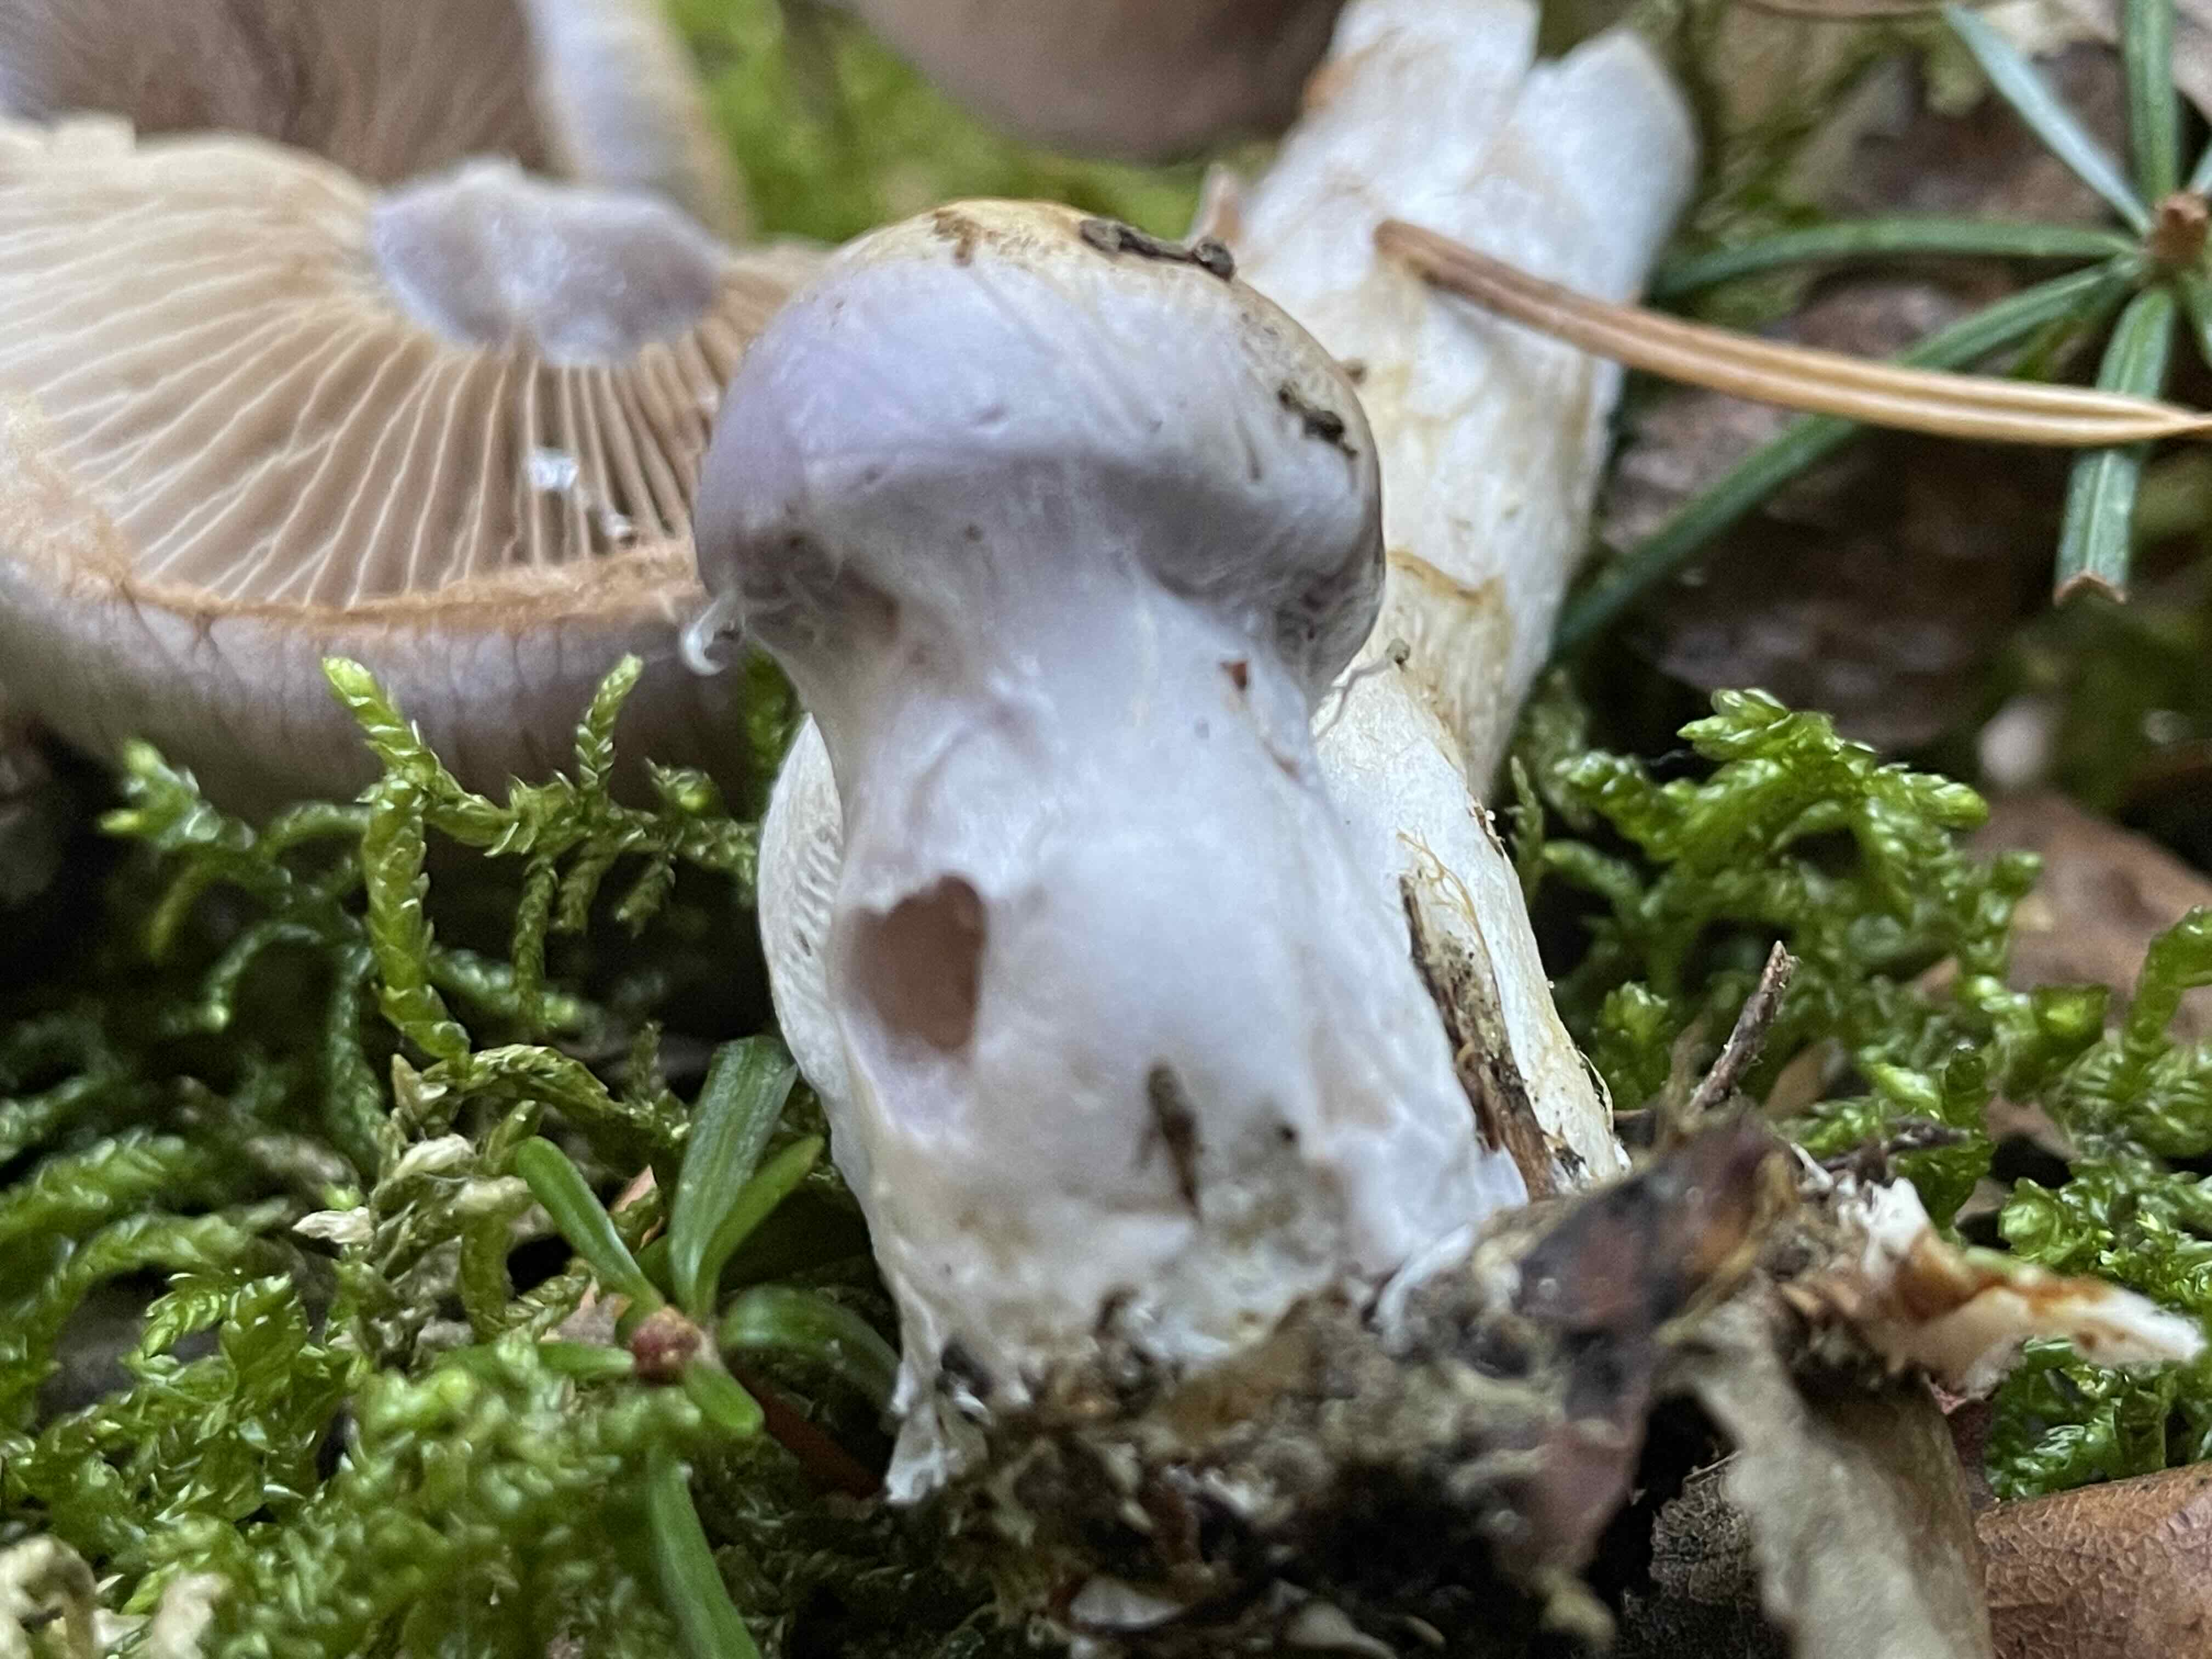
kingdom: Fungi
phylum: Basidiomycota
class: Agaricomycetes
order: Agaricales
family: Cortinariaceae
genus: Cortinarius
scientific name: Cortinarius largus
